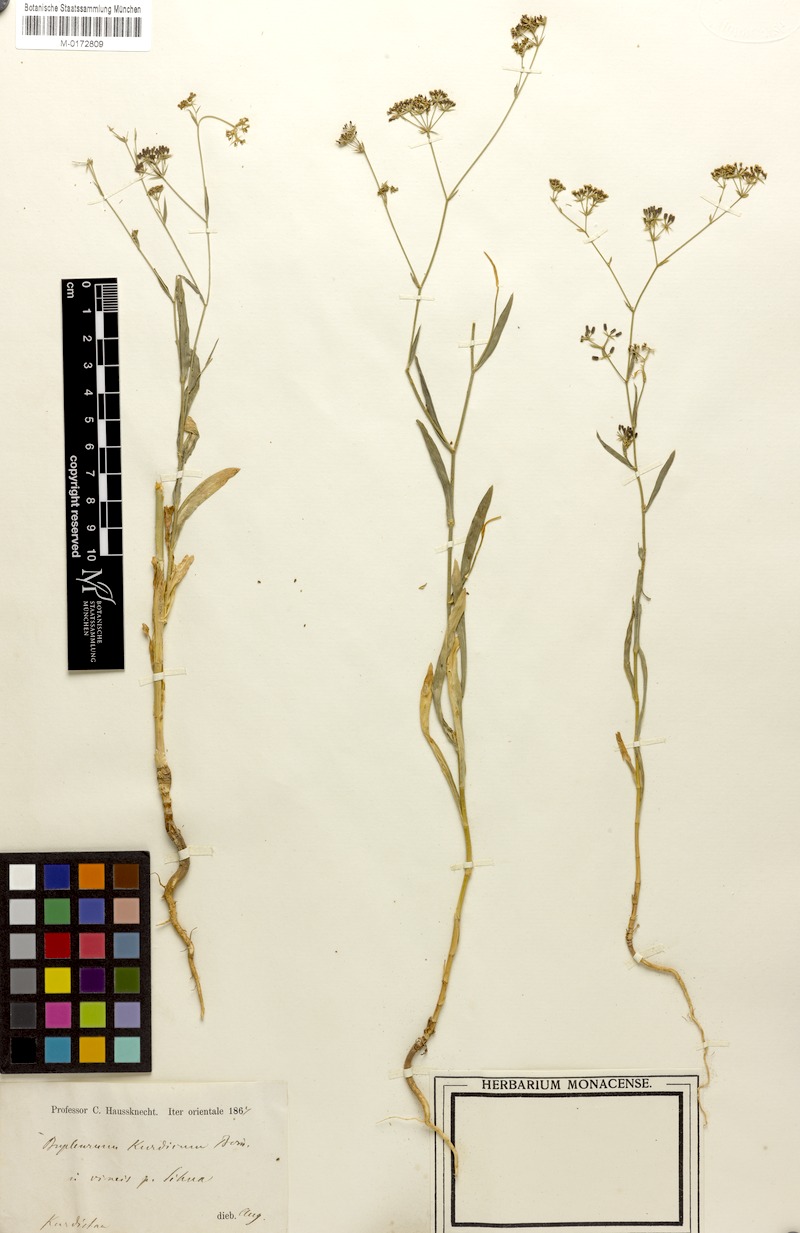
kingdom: Plantae
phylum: Tracheophyta
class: Magnoliopsida
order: Apiales
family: Apiaceae
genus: Bupleurum
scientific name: Bupleurum kurdicum
